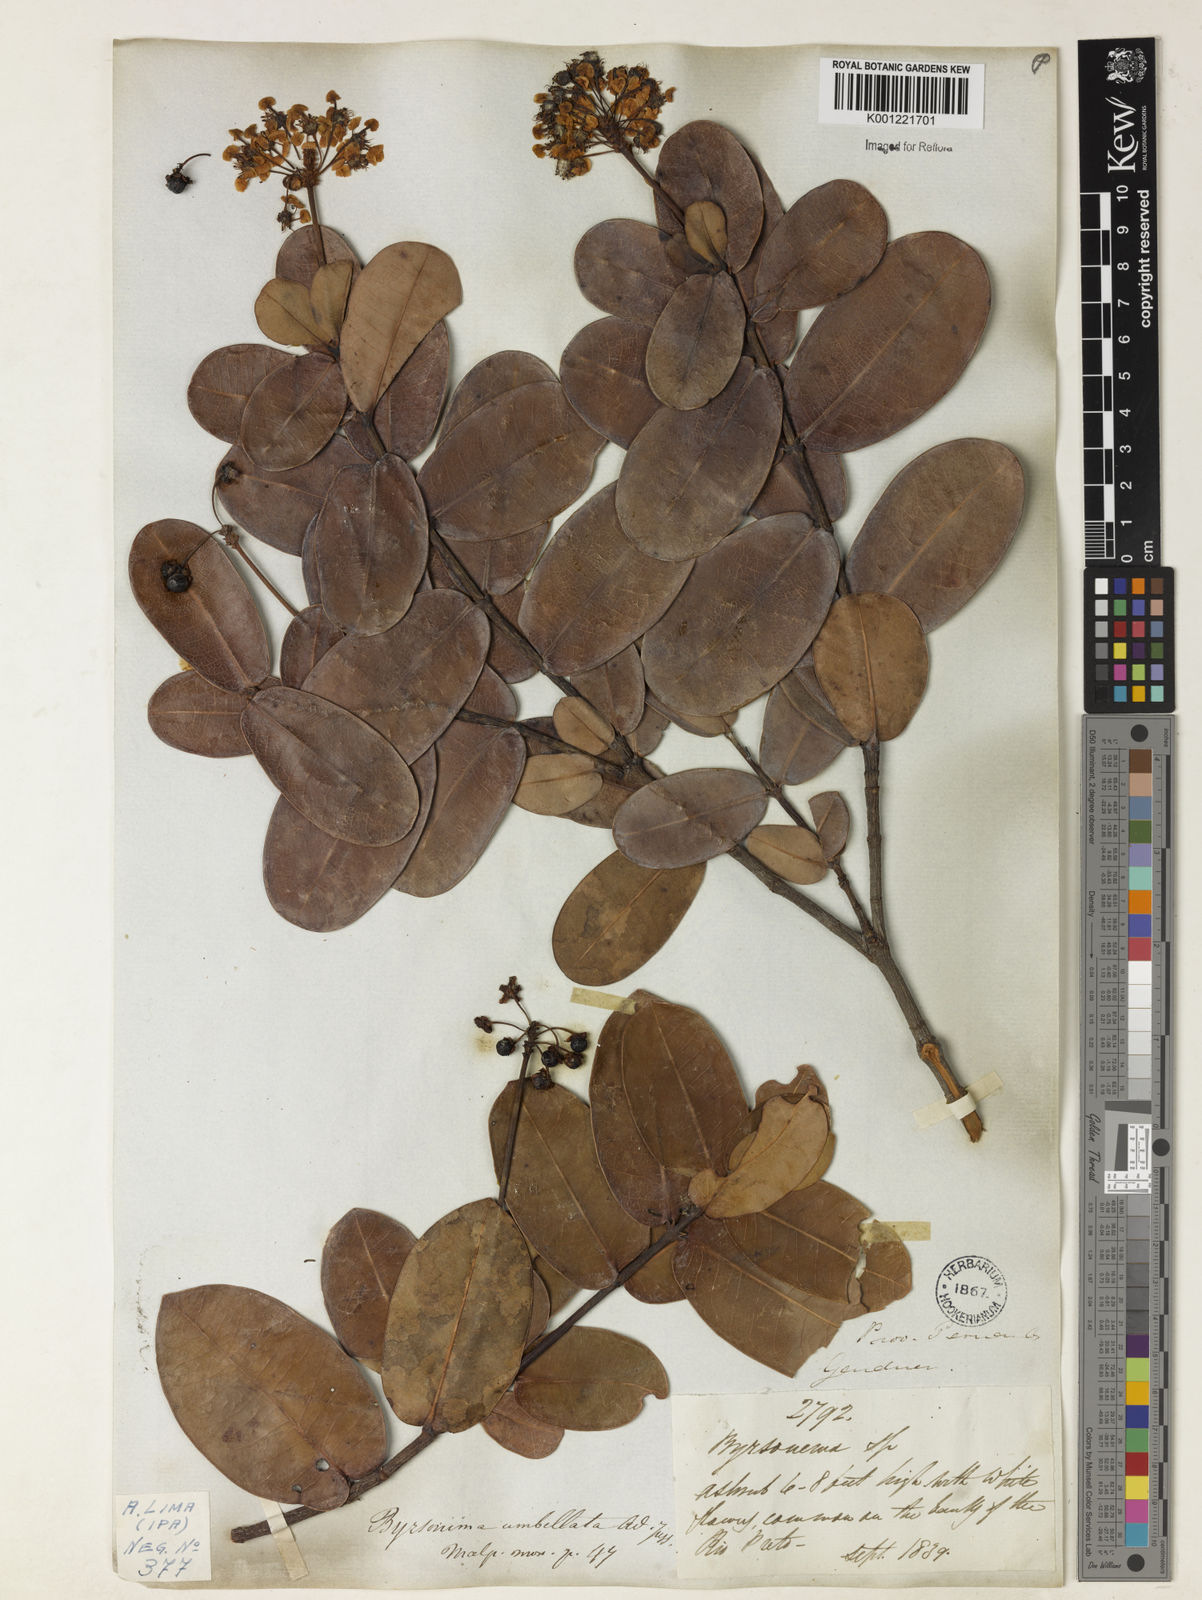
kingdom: Plantae
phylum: Tracheophyta
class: Magnoliopsida
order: Malpighiales
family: Malpighiaceae
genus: Byrsonima
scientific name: Byrsonima umbellata
